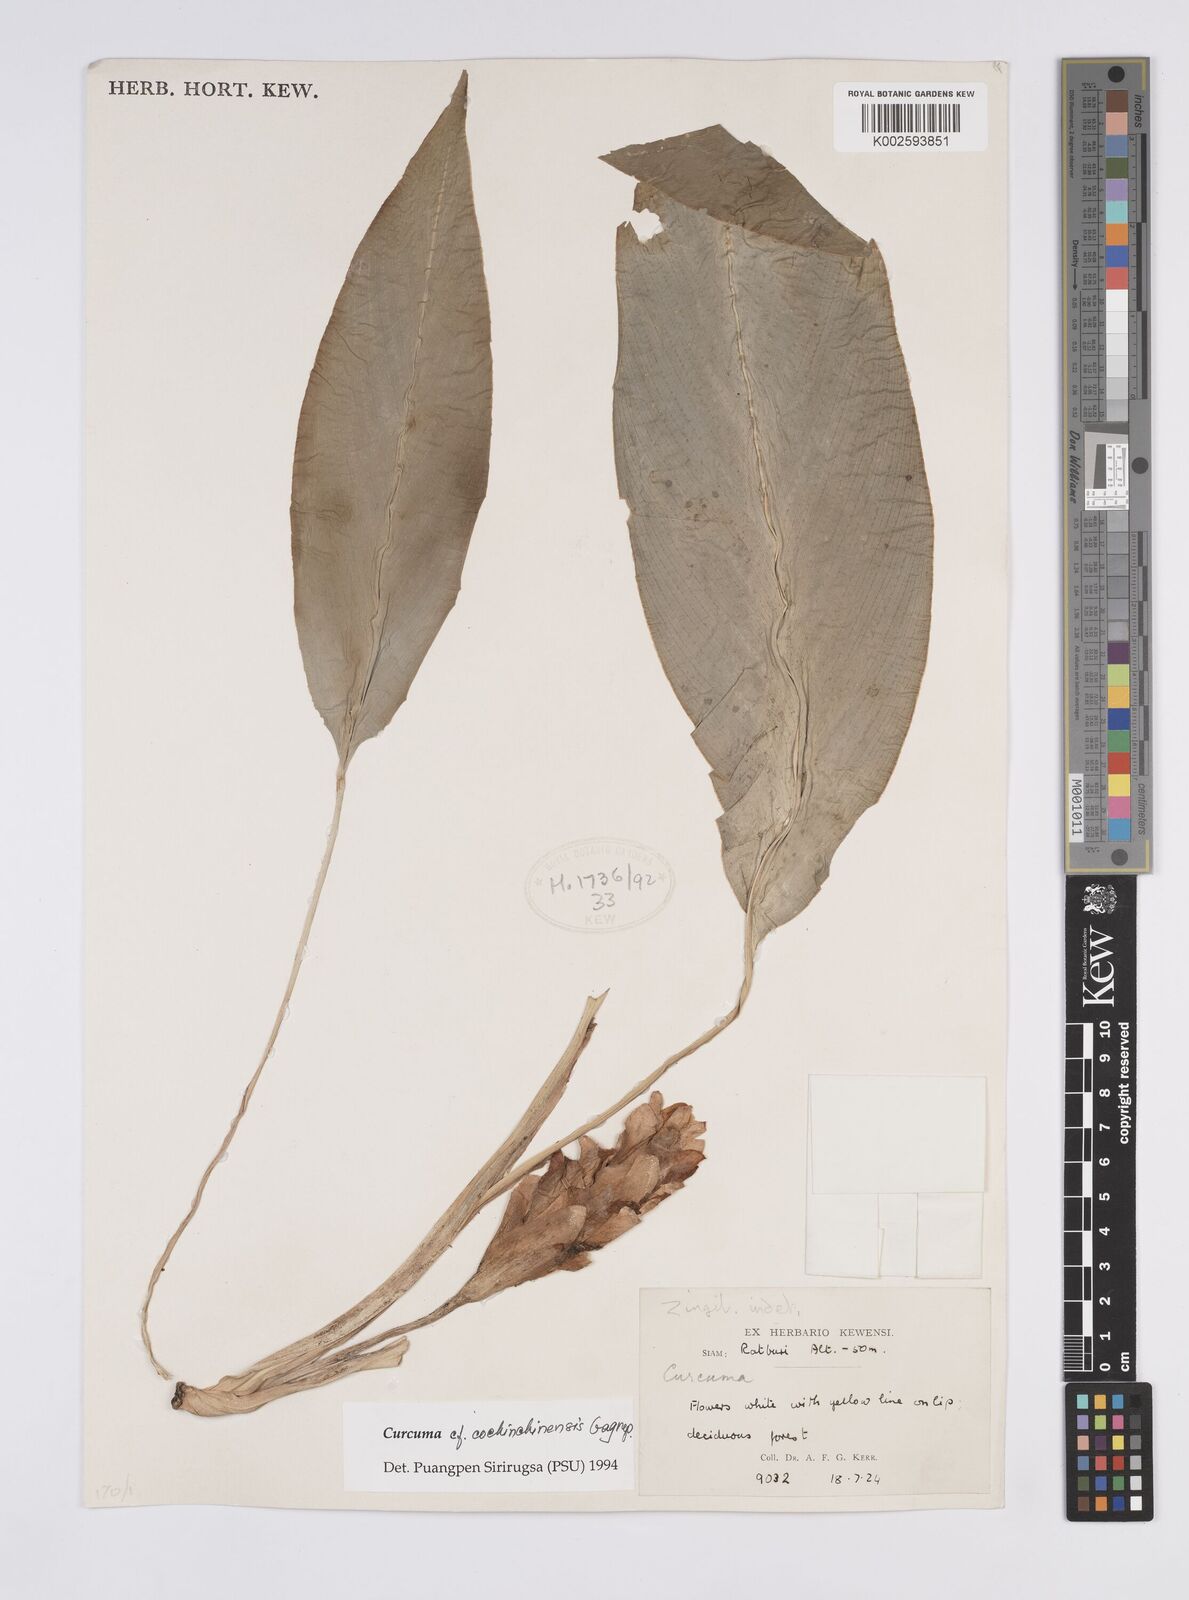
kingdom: Plantae
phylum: Tracheophyta
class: Liliopsida
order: Zingiberales
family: Zingiberaceae
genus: Curcuma
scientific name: Curcuma cochinchinensis
